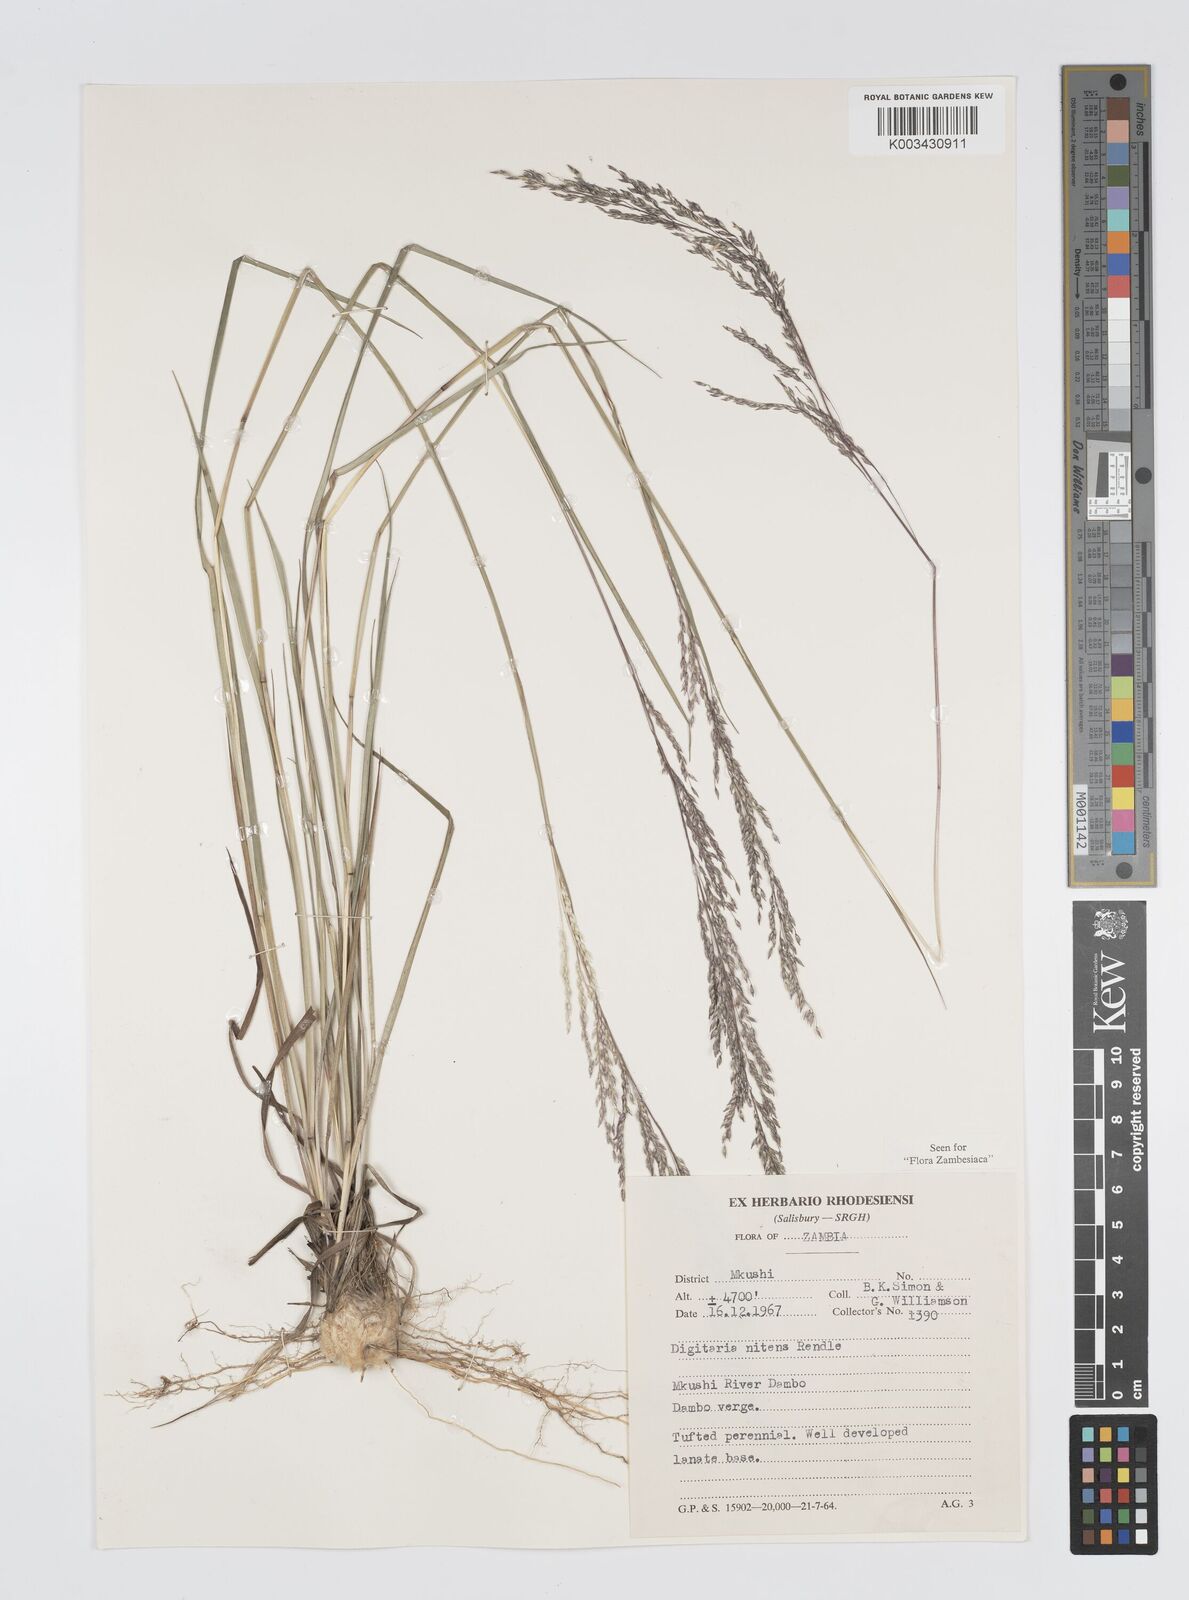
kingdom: Plantae
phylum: Tracheophyta
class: Liliopsida
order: Poales
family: Poaceae
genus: Digitaria
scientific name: Digitaria flaccida
